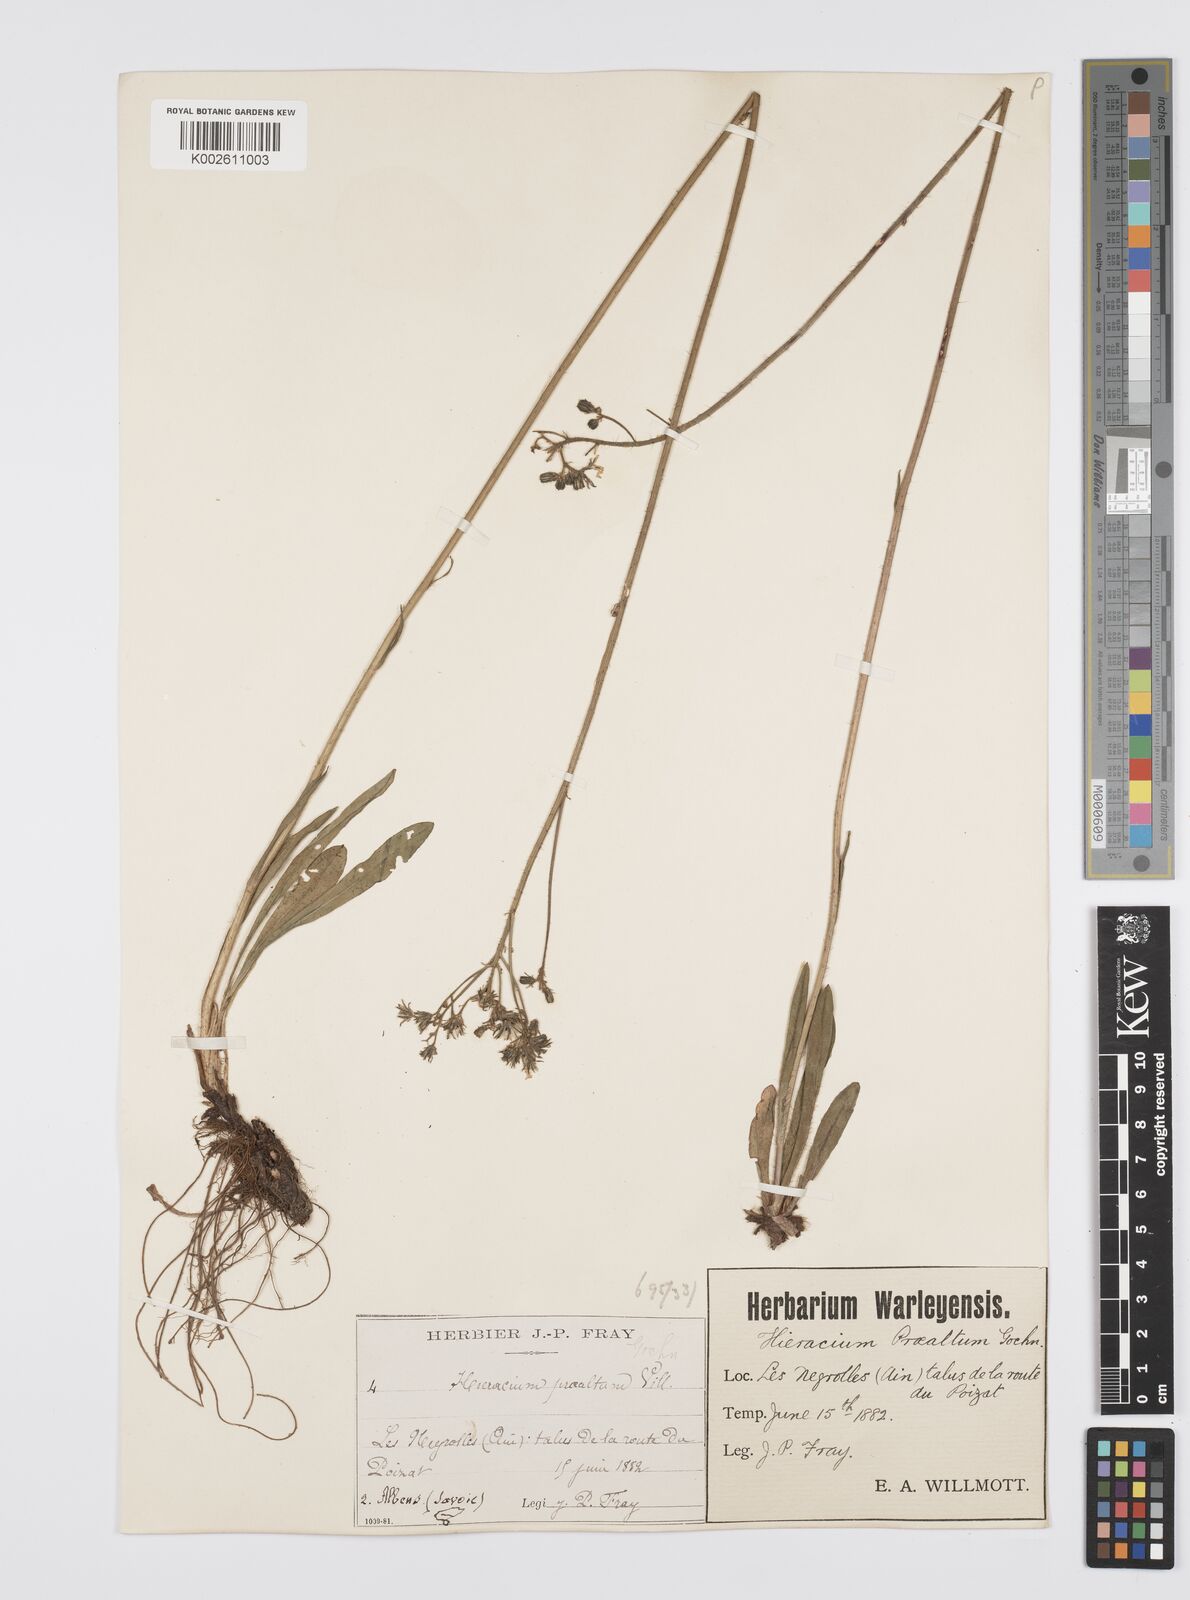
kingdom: Plantae
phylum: Tracheophyta
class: Magnoliopsida
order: Asterales
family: Asteraceae
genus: Pilosella
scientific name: Pilosella piloselloides
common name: Glaucous king-devil
